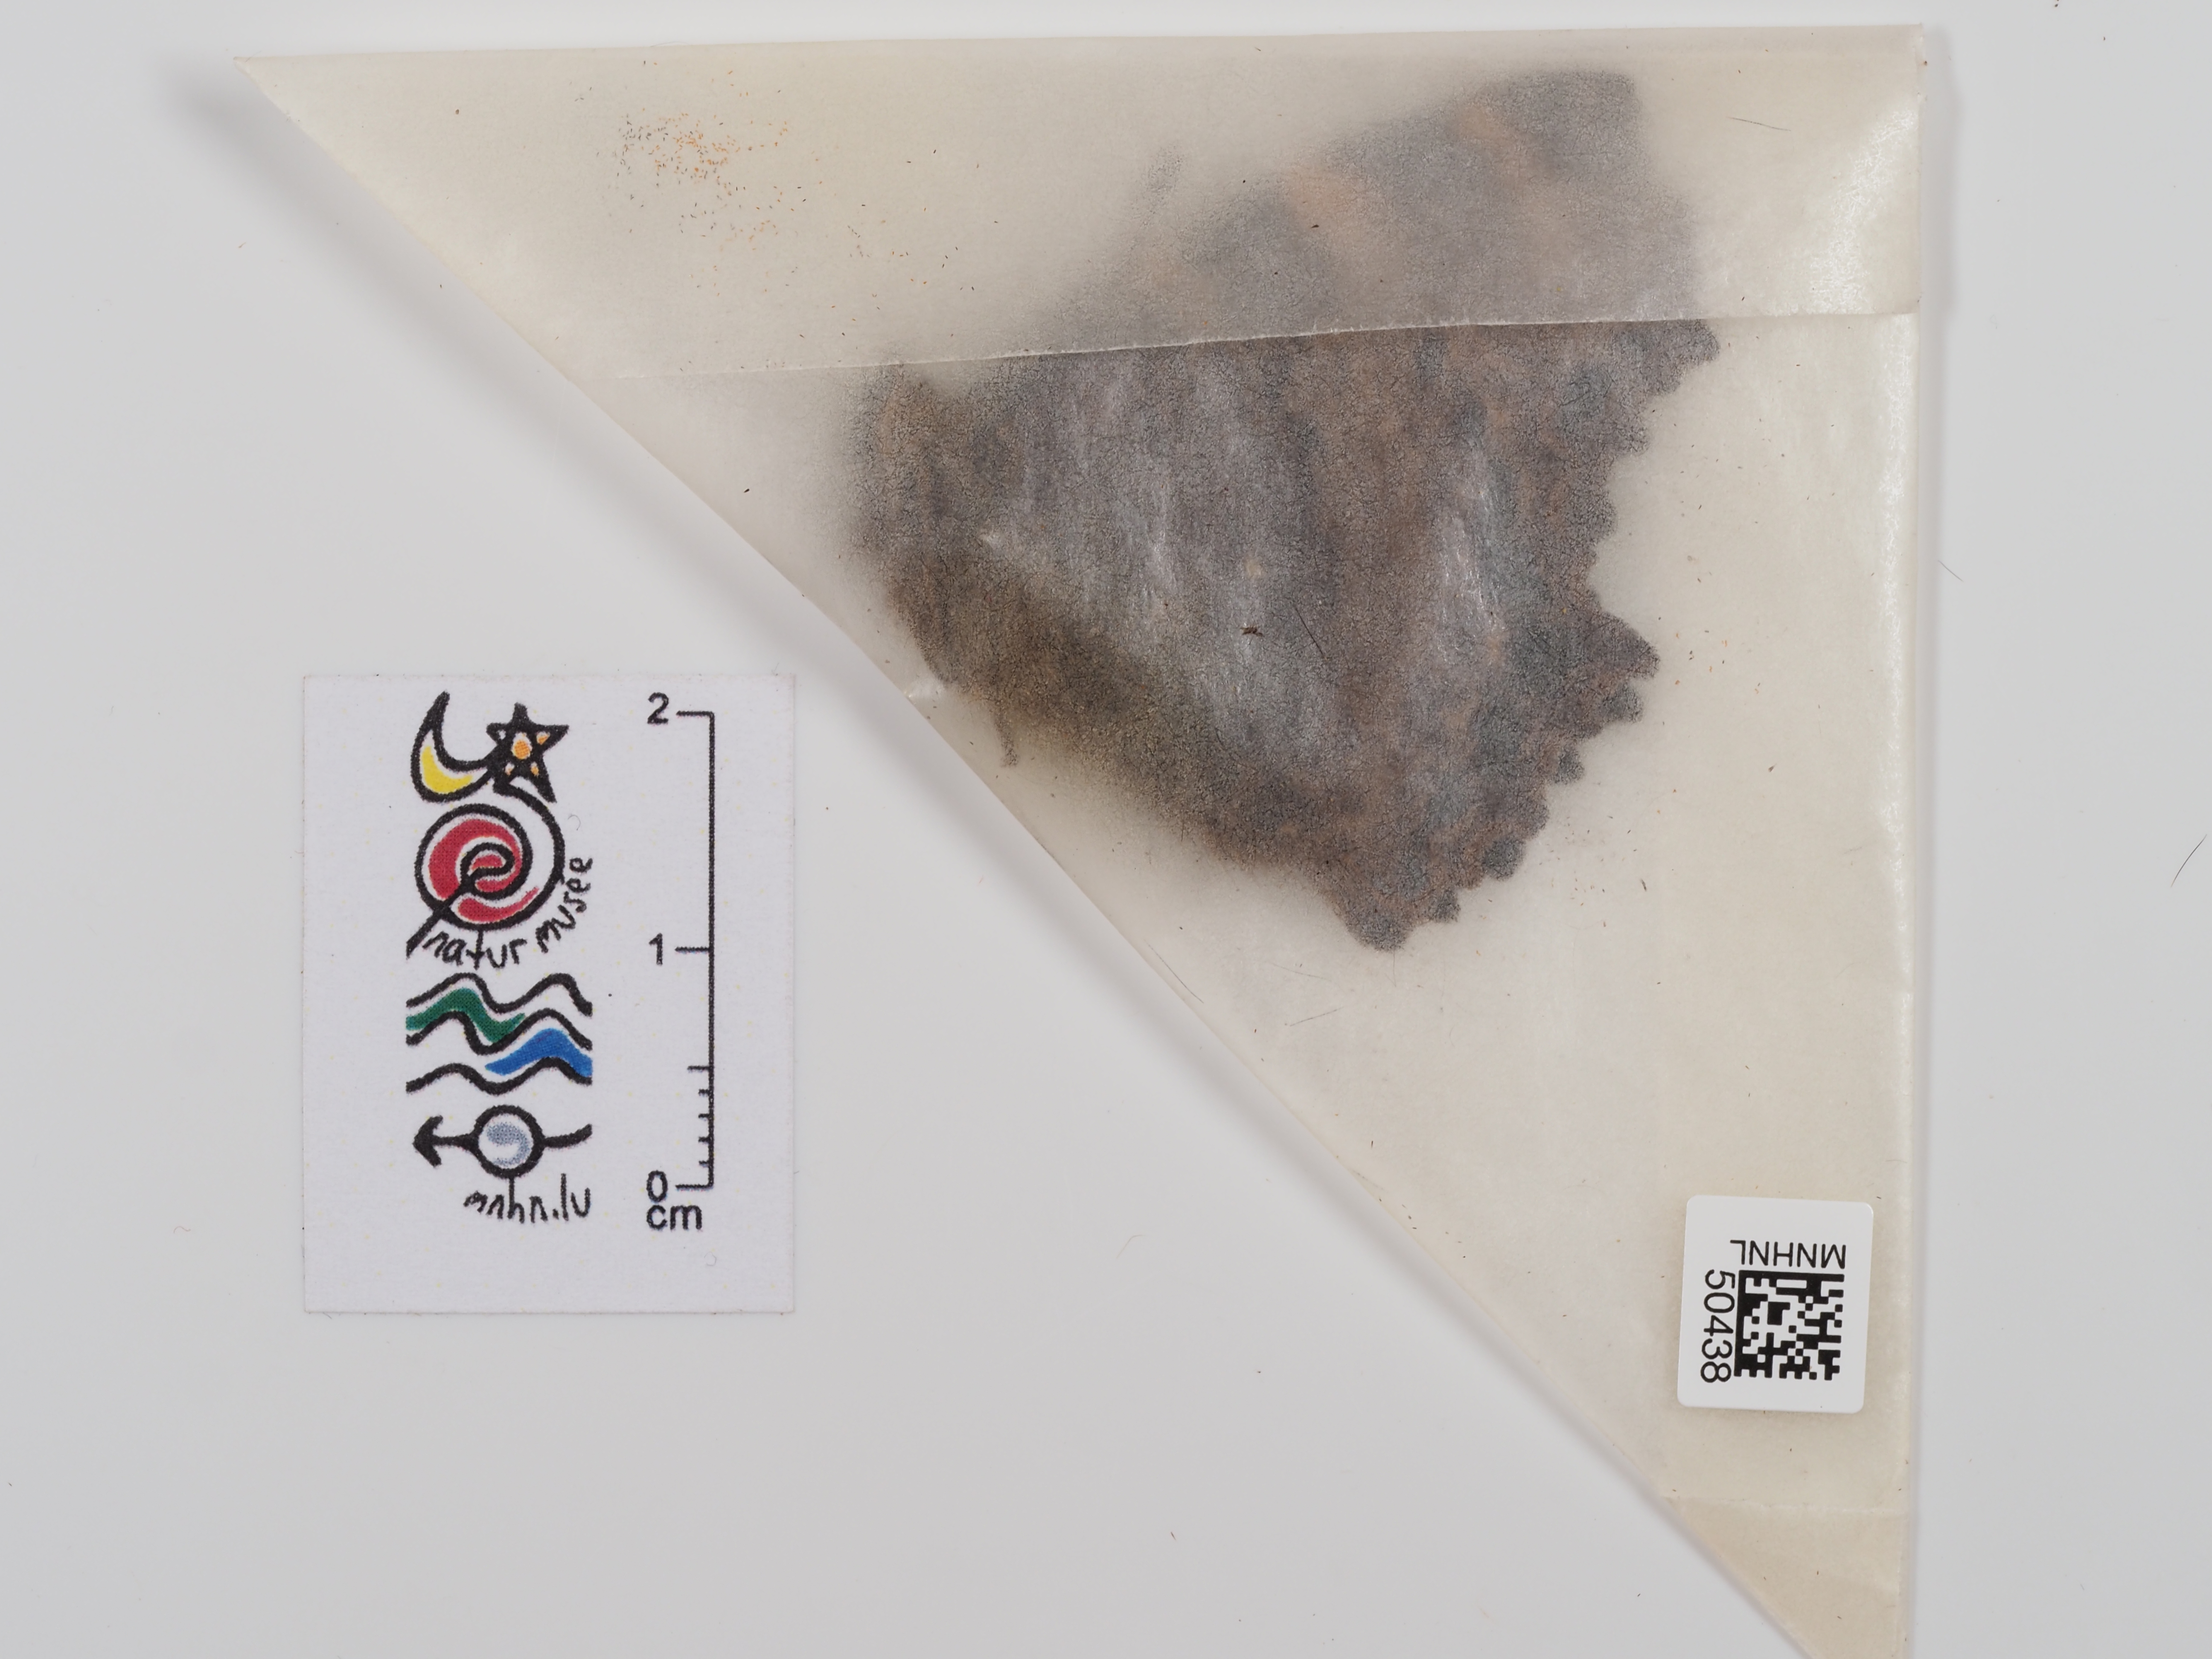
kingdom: Animalia
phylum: Arthropoda
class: Insecta
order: Lepidoptera
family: Nymphalidae
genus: Nymphalis
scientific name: Nymphalis polychloros
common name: Large tortoiseshell
